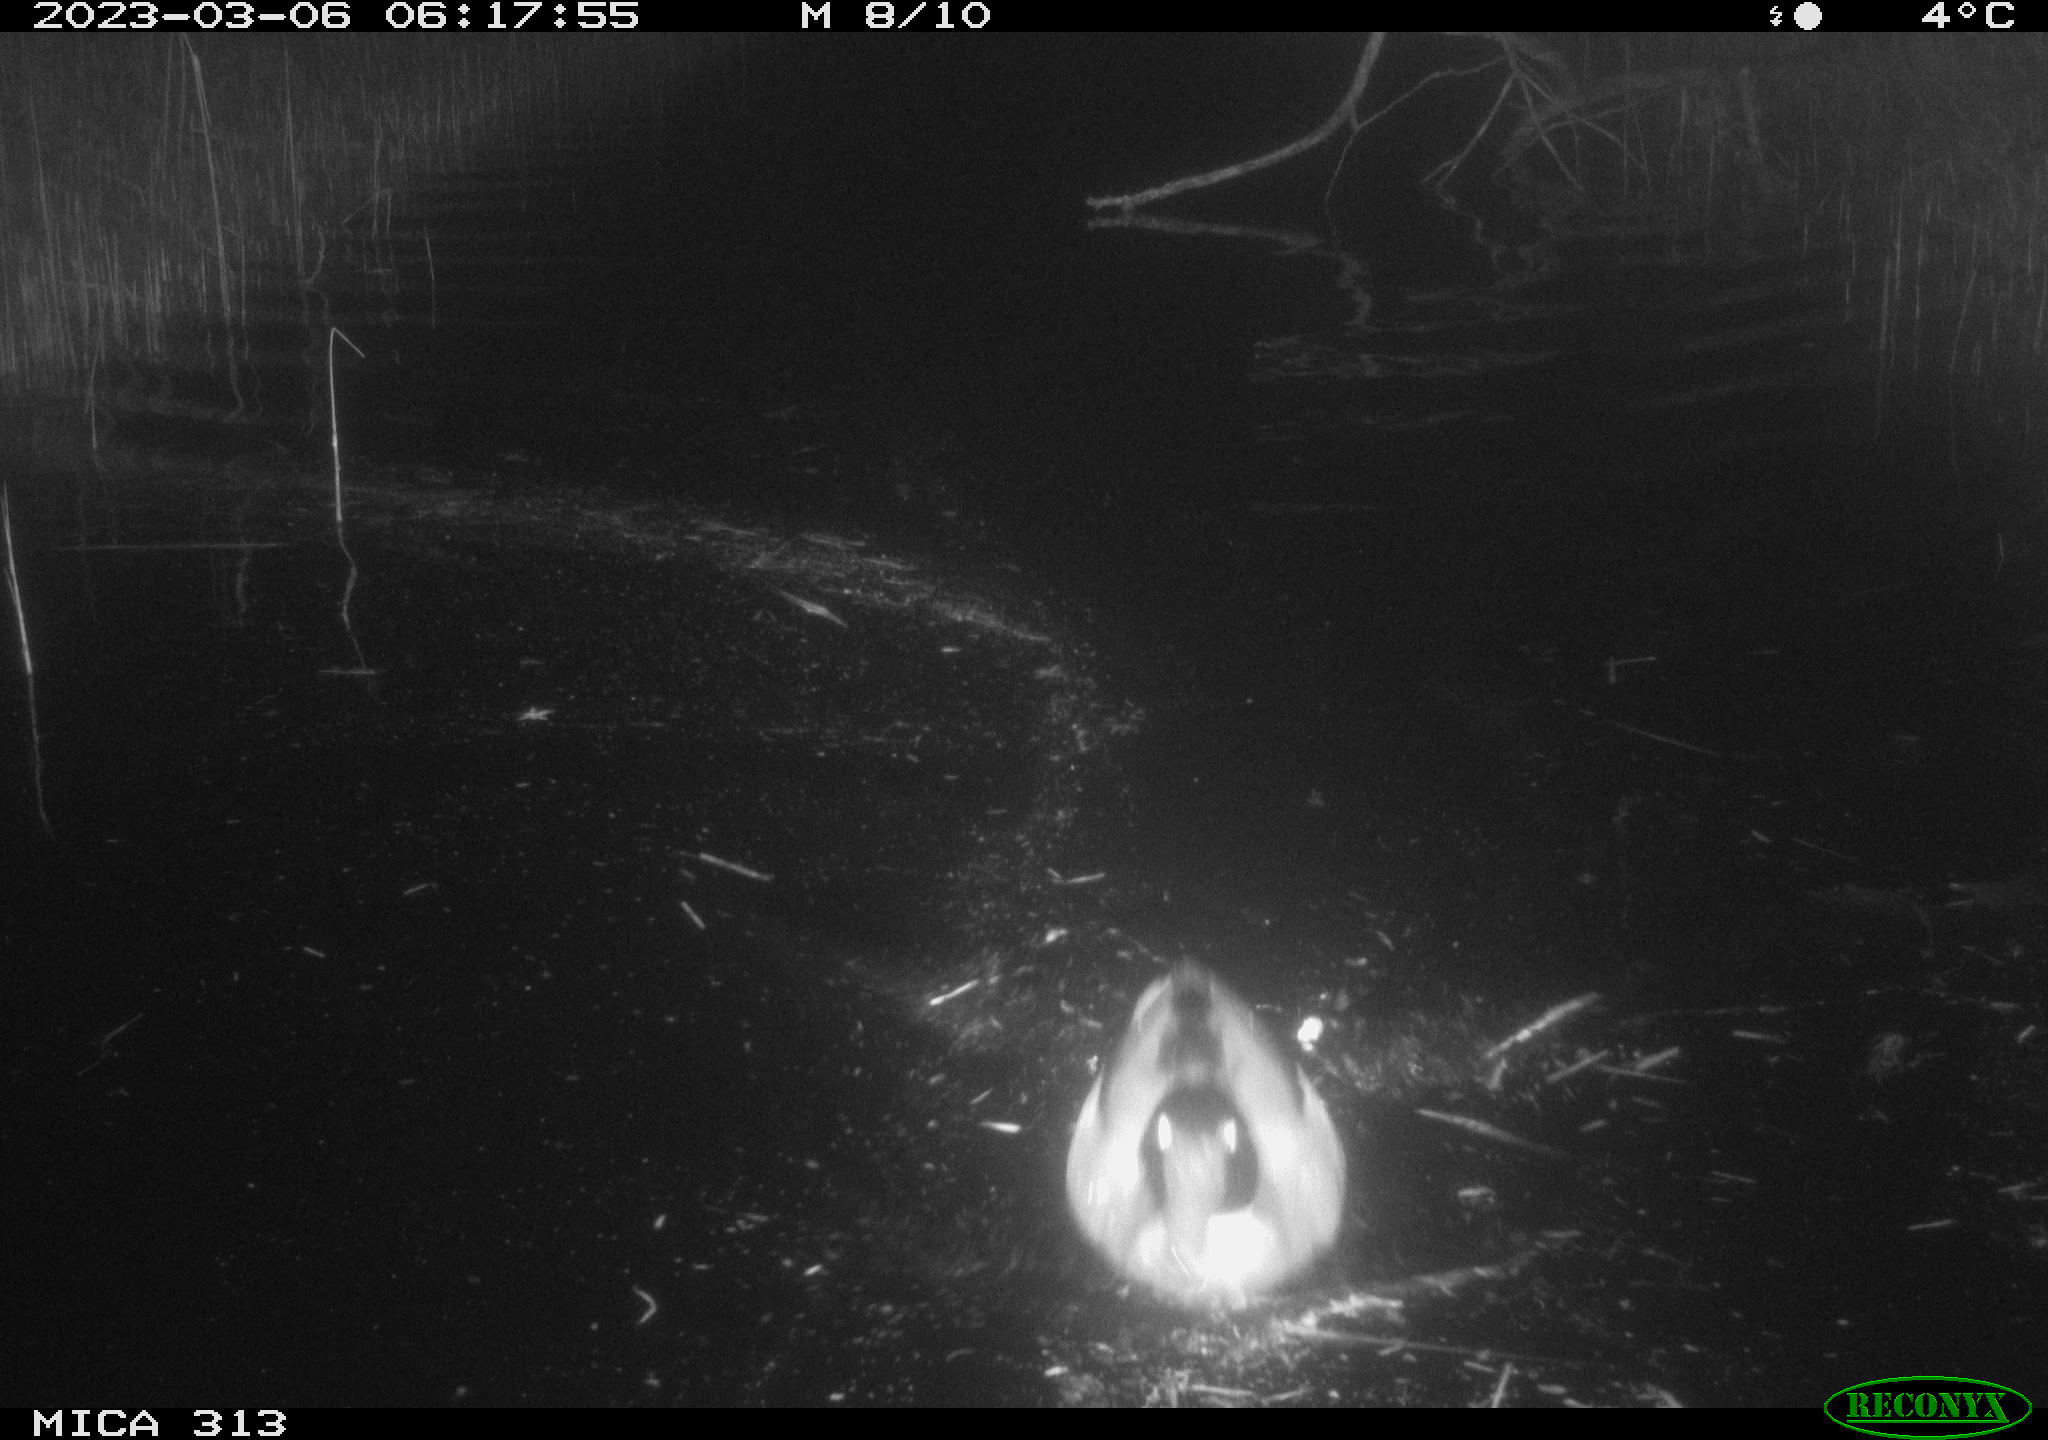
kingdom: Animalia
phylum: Chordata
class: Aves
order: Gruiformes
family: Rallidae
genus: Fulica
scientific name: Fulica atra
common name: Eurasian coot
